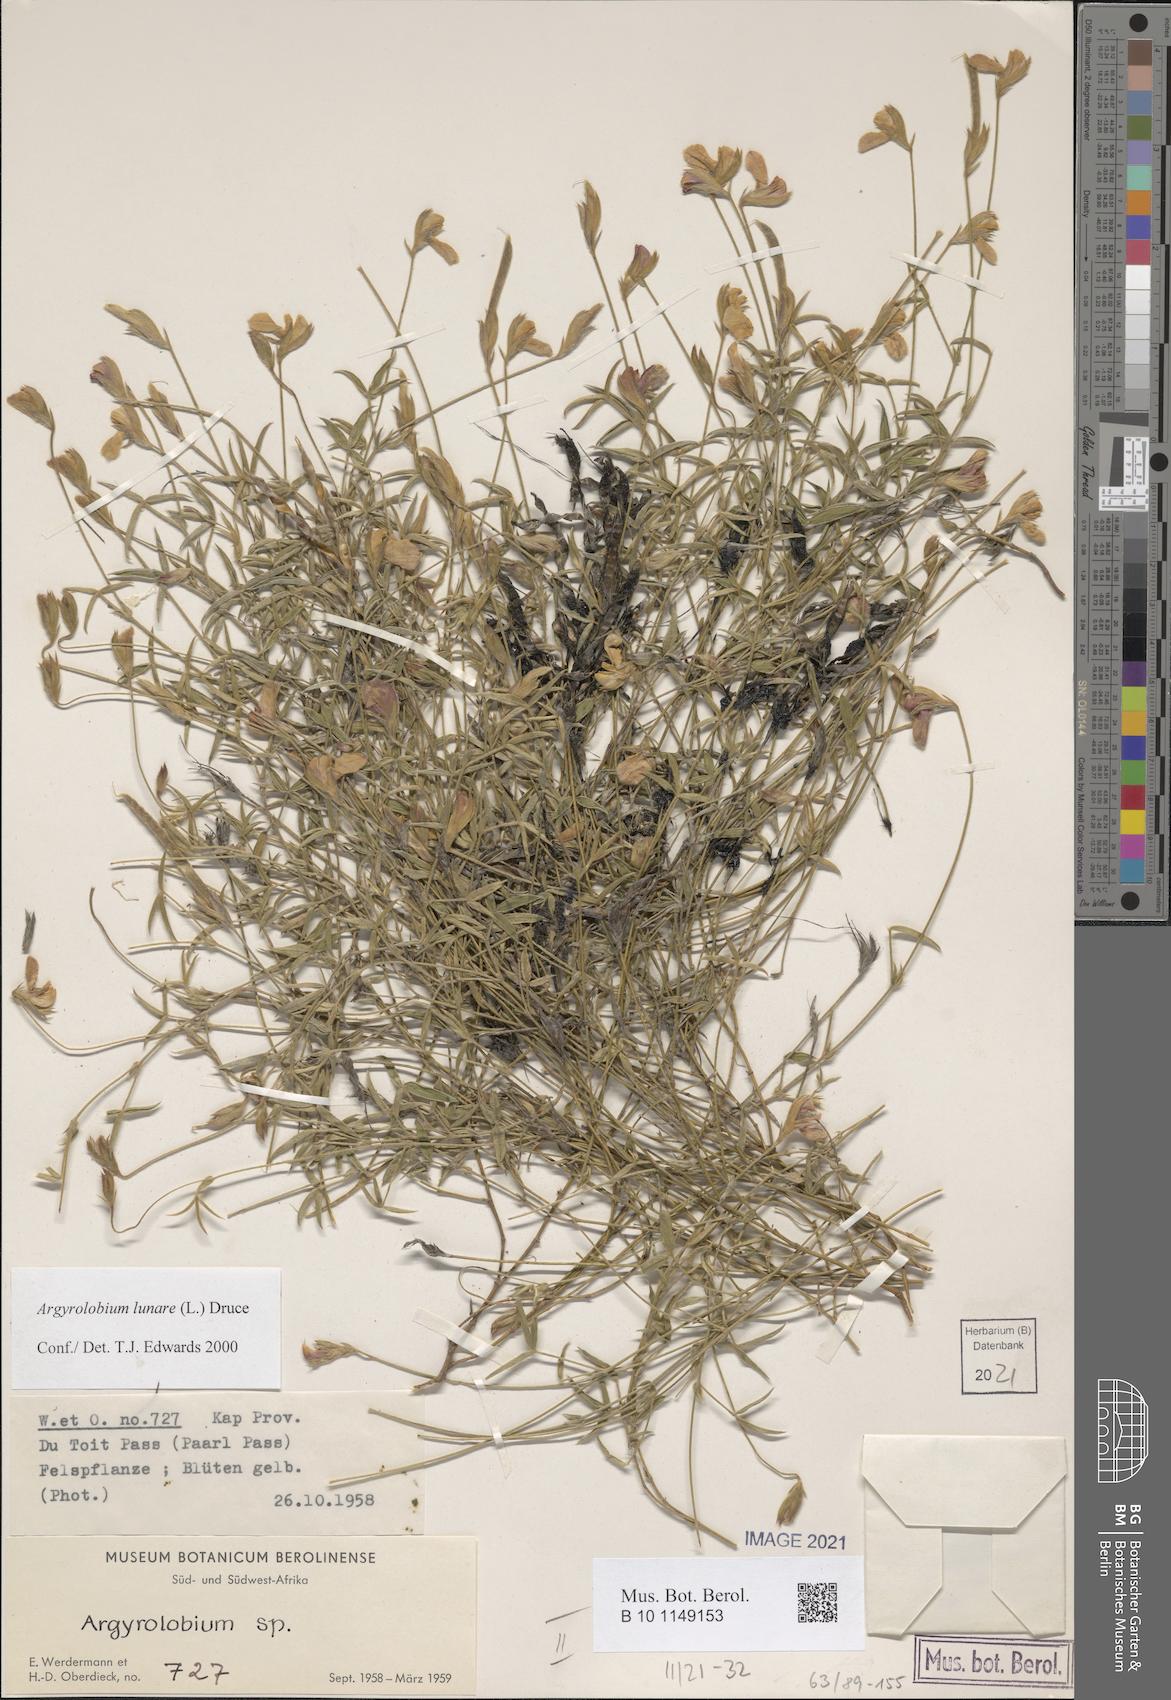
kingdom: Plantae
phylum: Tracheophyta
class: Magnoliopsida
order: Fabales
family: Fabaceae
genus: Argyrolobium
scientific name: Argyrolobium lunare
